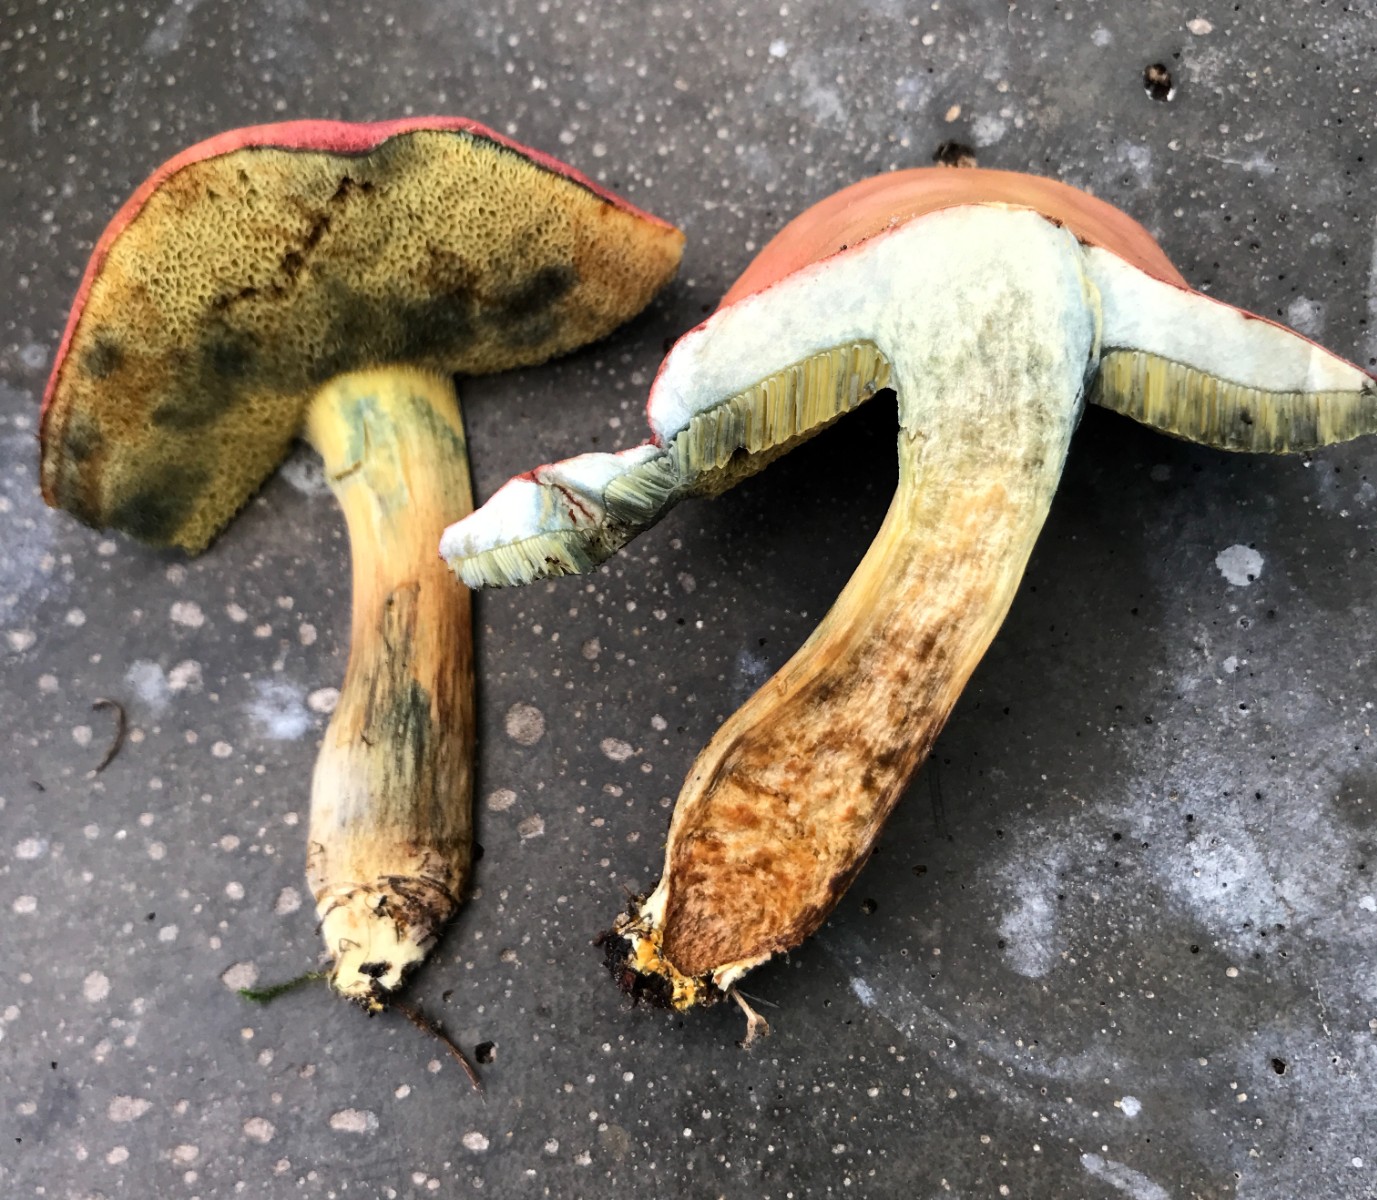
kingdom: Fungi
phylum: Basidiomycota
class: Agaricomycetes
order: Boletales
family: Boletaceae
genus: Hortiboletus
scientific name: Hortiboletus rubellus
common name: blodrød rørhat
